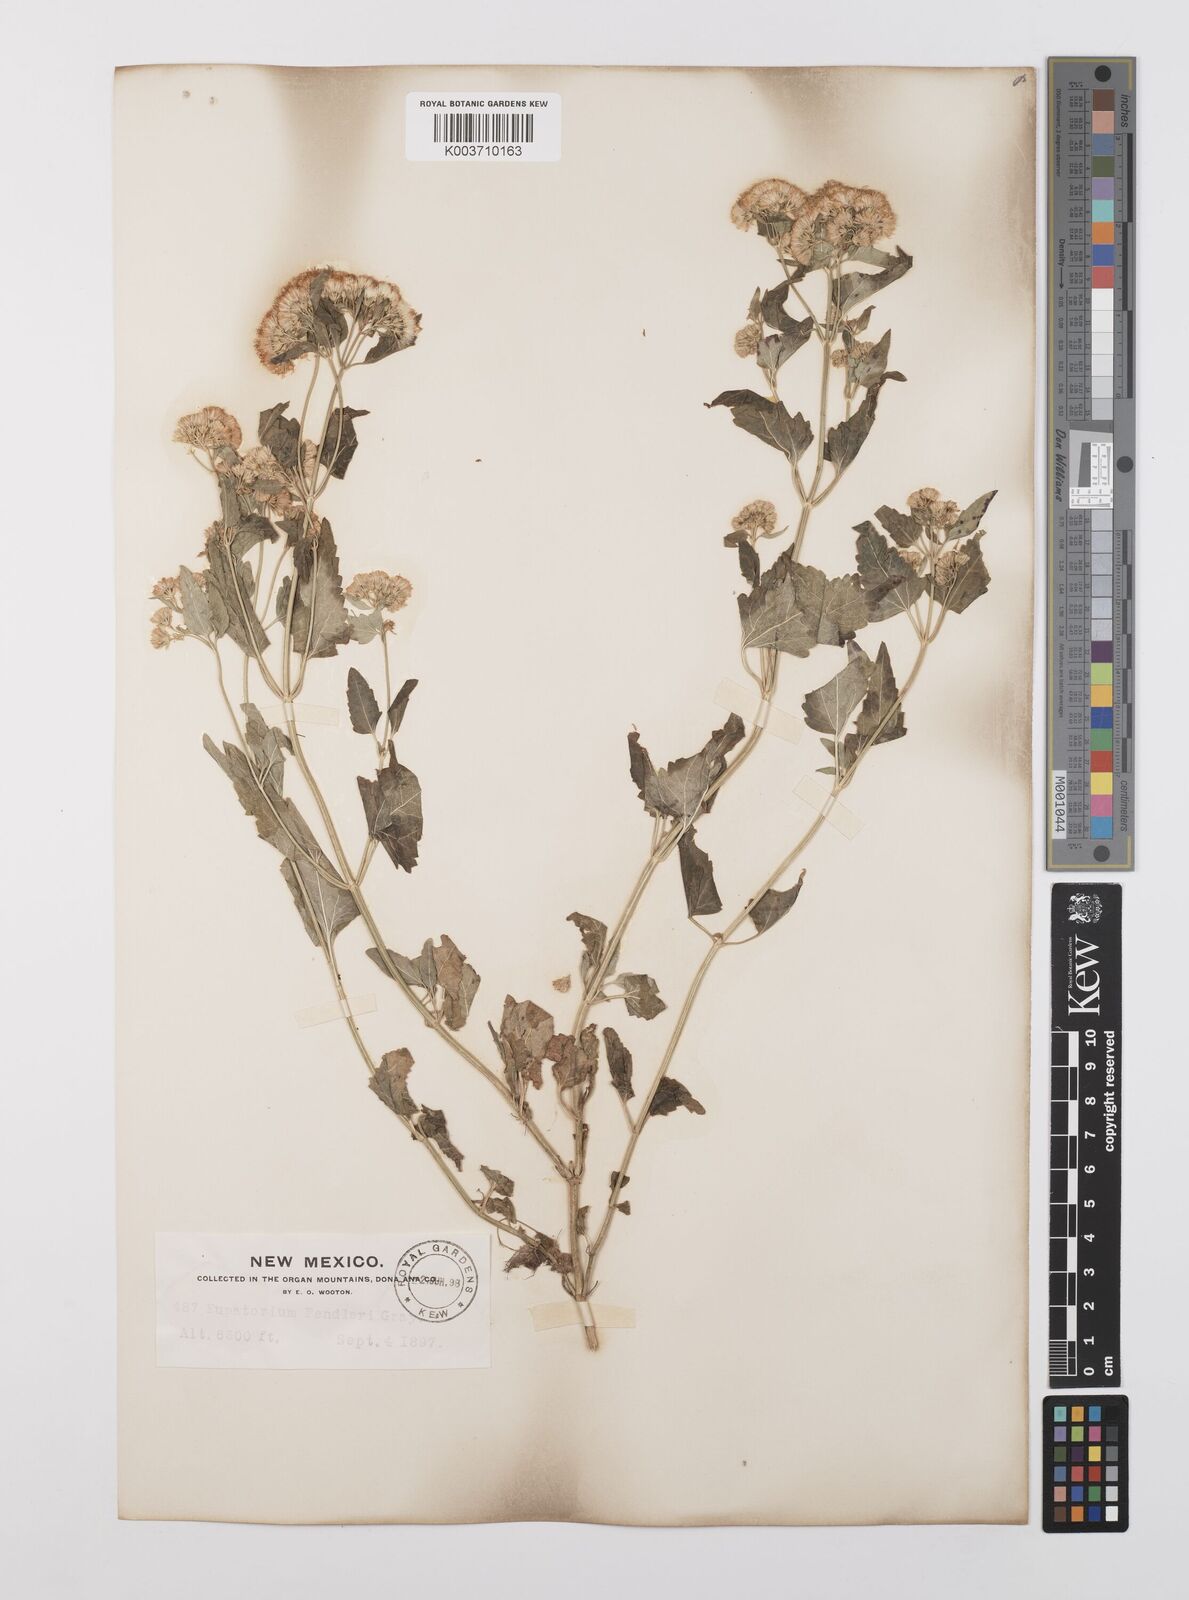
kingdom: Plantae
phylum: Tracheophyta
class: Magnoliopsida
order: Asterales
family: Asteraceae
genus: Brickelliastrum
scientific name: Brickelliastrum fendleri
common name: Fendler's-brickellbush
